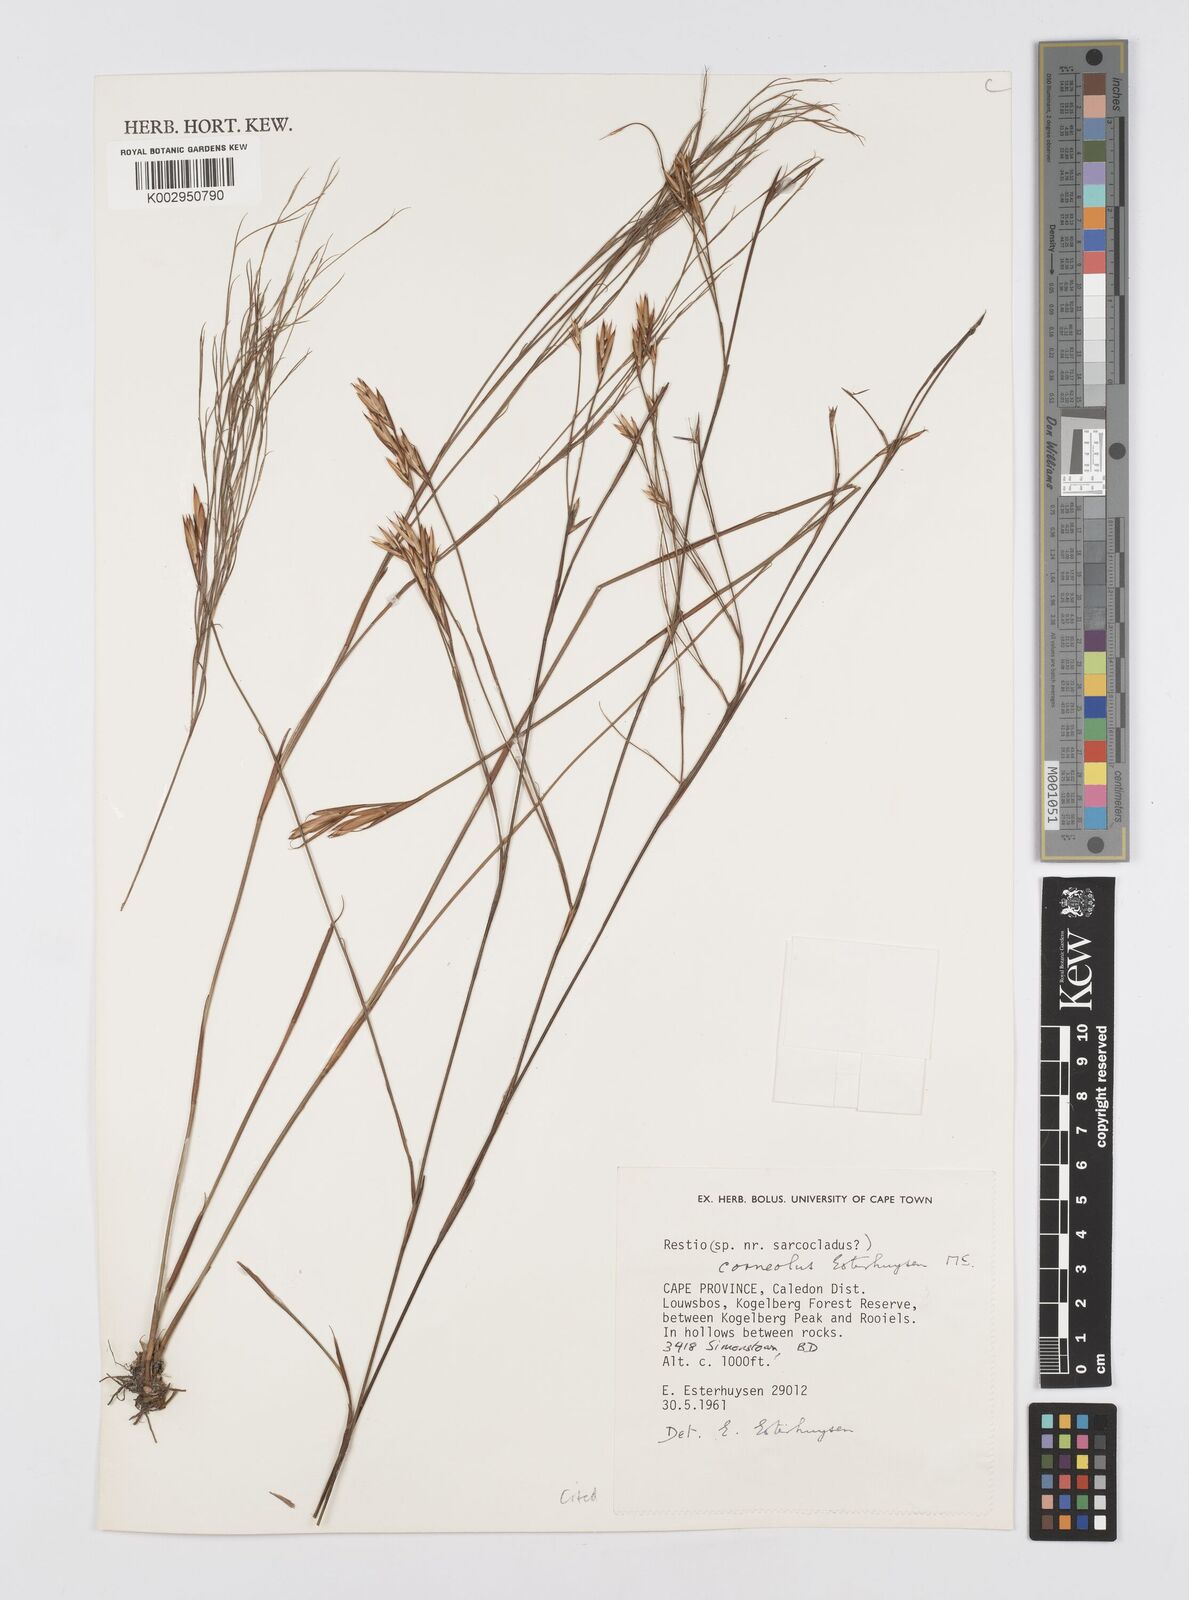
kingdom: Plantae
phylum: Tracheophyta
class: Liliopsida
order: Poales
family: Restionaceae
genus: Restio
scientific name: Restio corneolus
